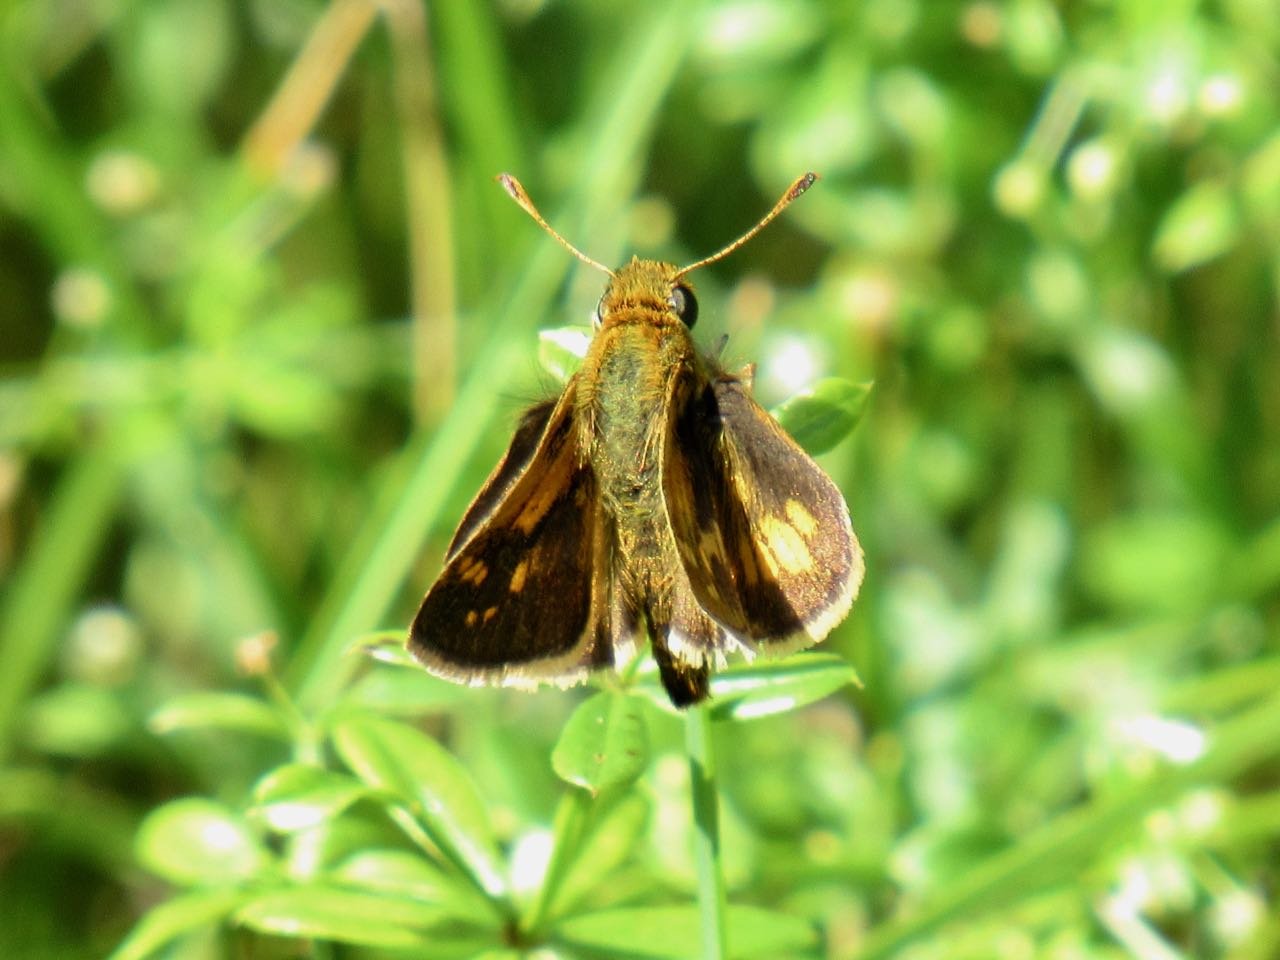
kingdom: Animalia
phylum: Arthropoda
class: Insecta
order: Lepidoptera
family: Hesperiidae
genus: Polites
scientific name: Polites coras
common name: Peck's Skipper
